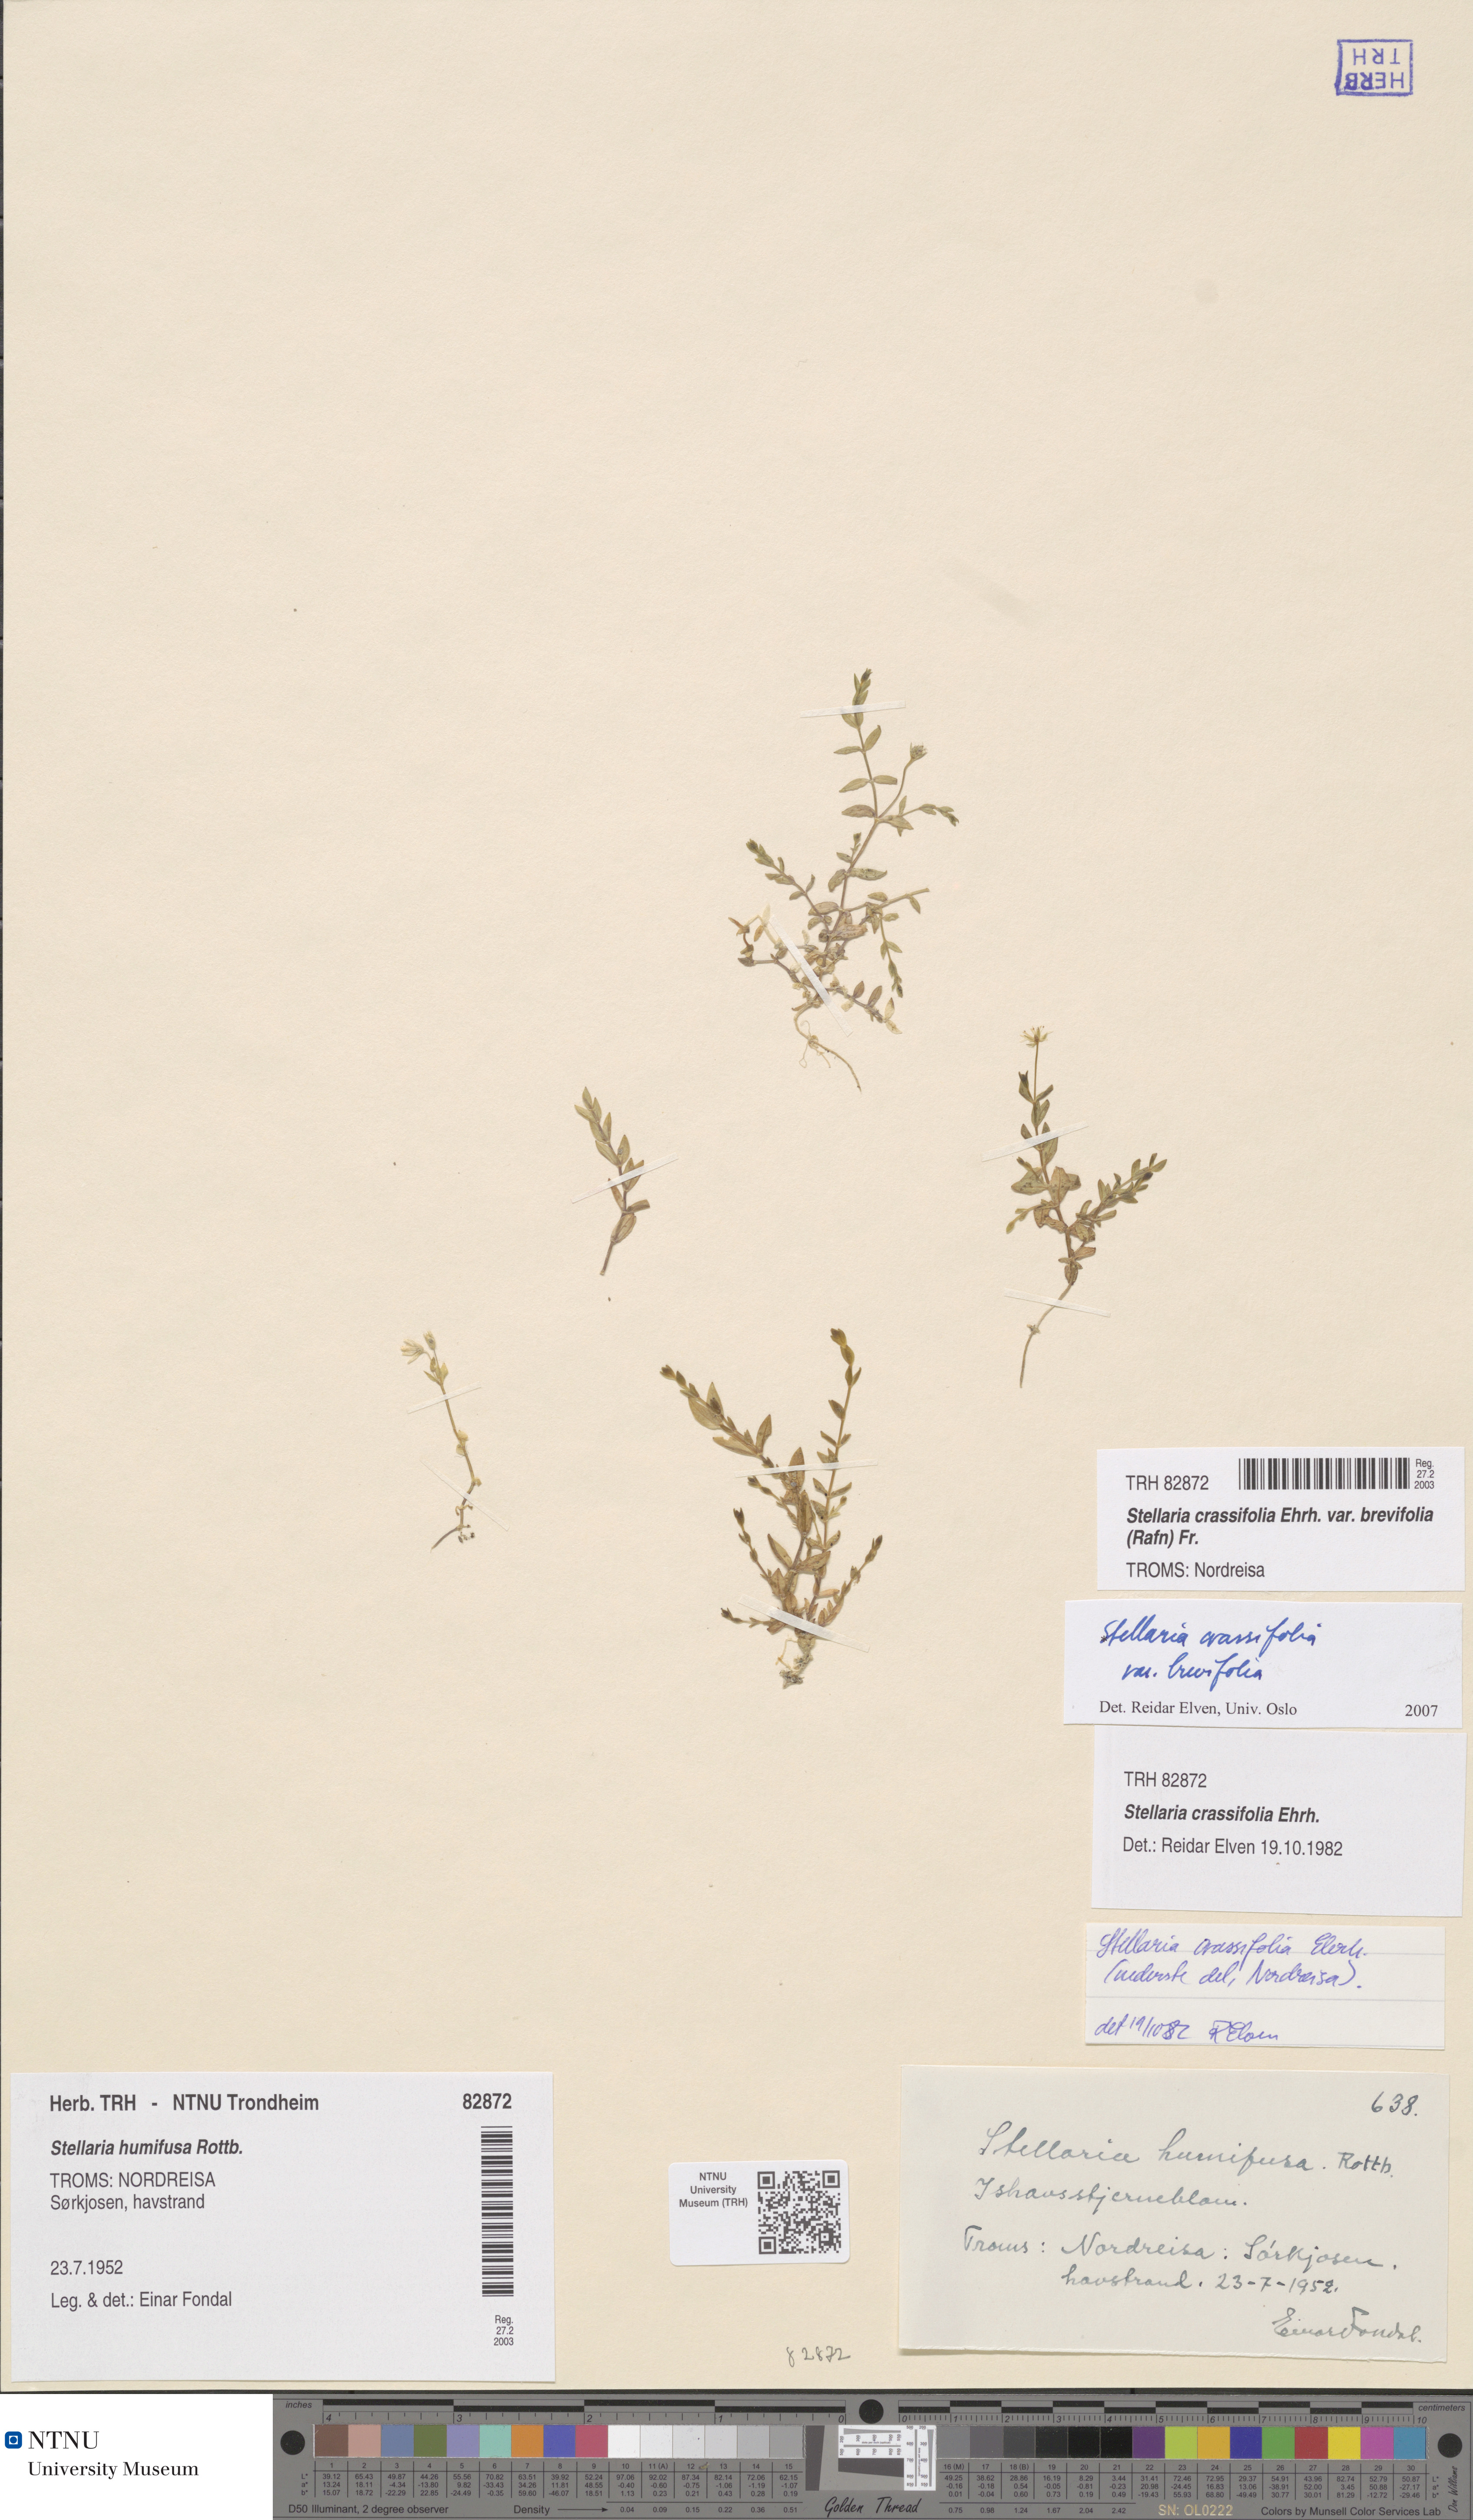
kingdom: Plantae
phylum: Tracheophyta
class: Magnoliopsida
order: Caryophyllales
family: Caryophyllaceae
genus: Stellaria
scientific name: Stellaria crassifolia
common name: Fleshy starwort
